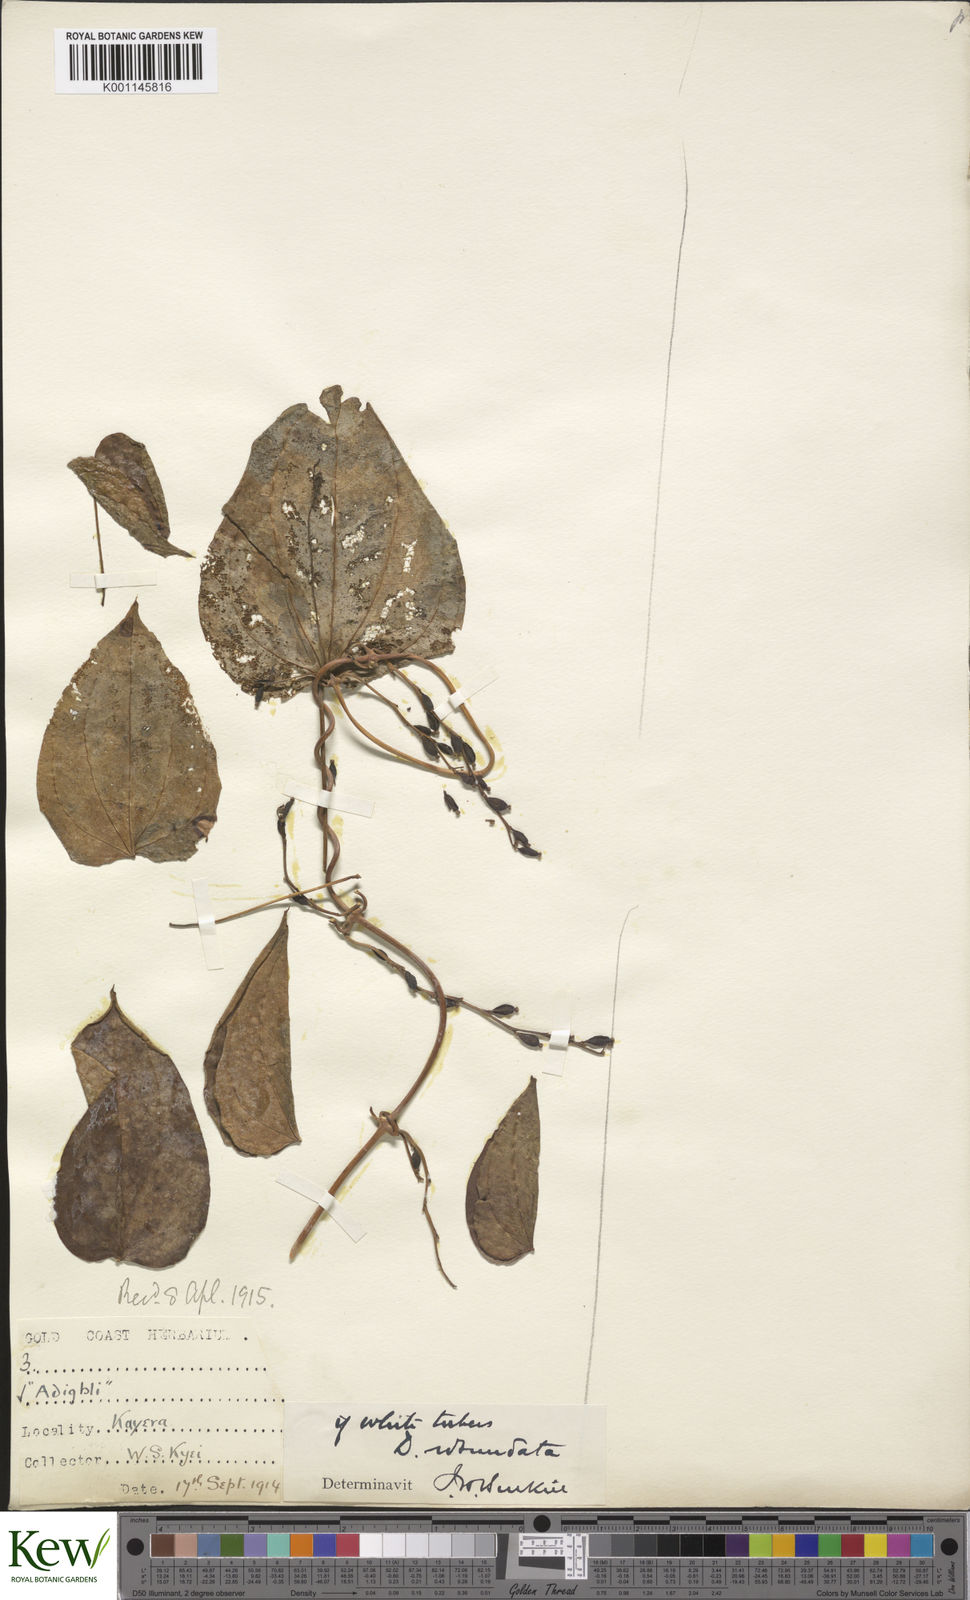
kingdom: Plantae
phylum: Tracheophyta
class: Liliopsida
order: Dioscoreales
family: Dioscoreaceae
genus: Dioscorea
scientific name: Dioscorea cayenensis
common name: Attoto yam
